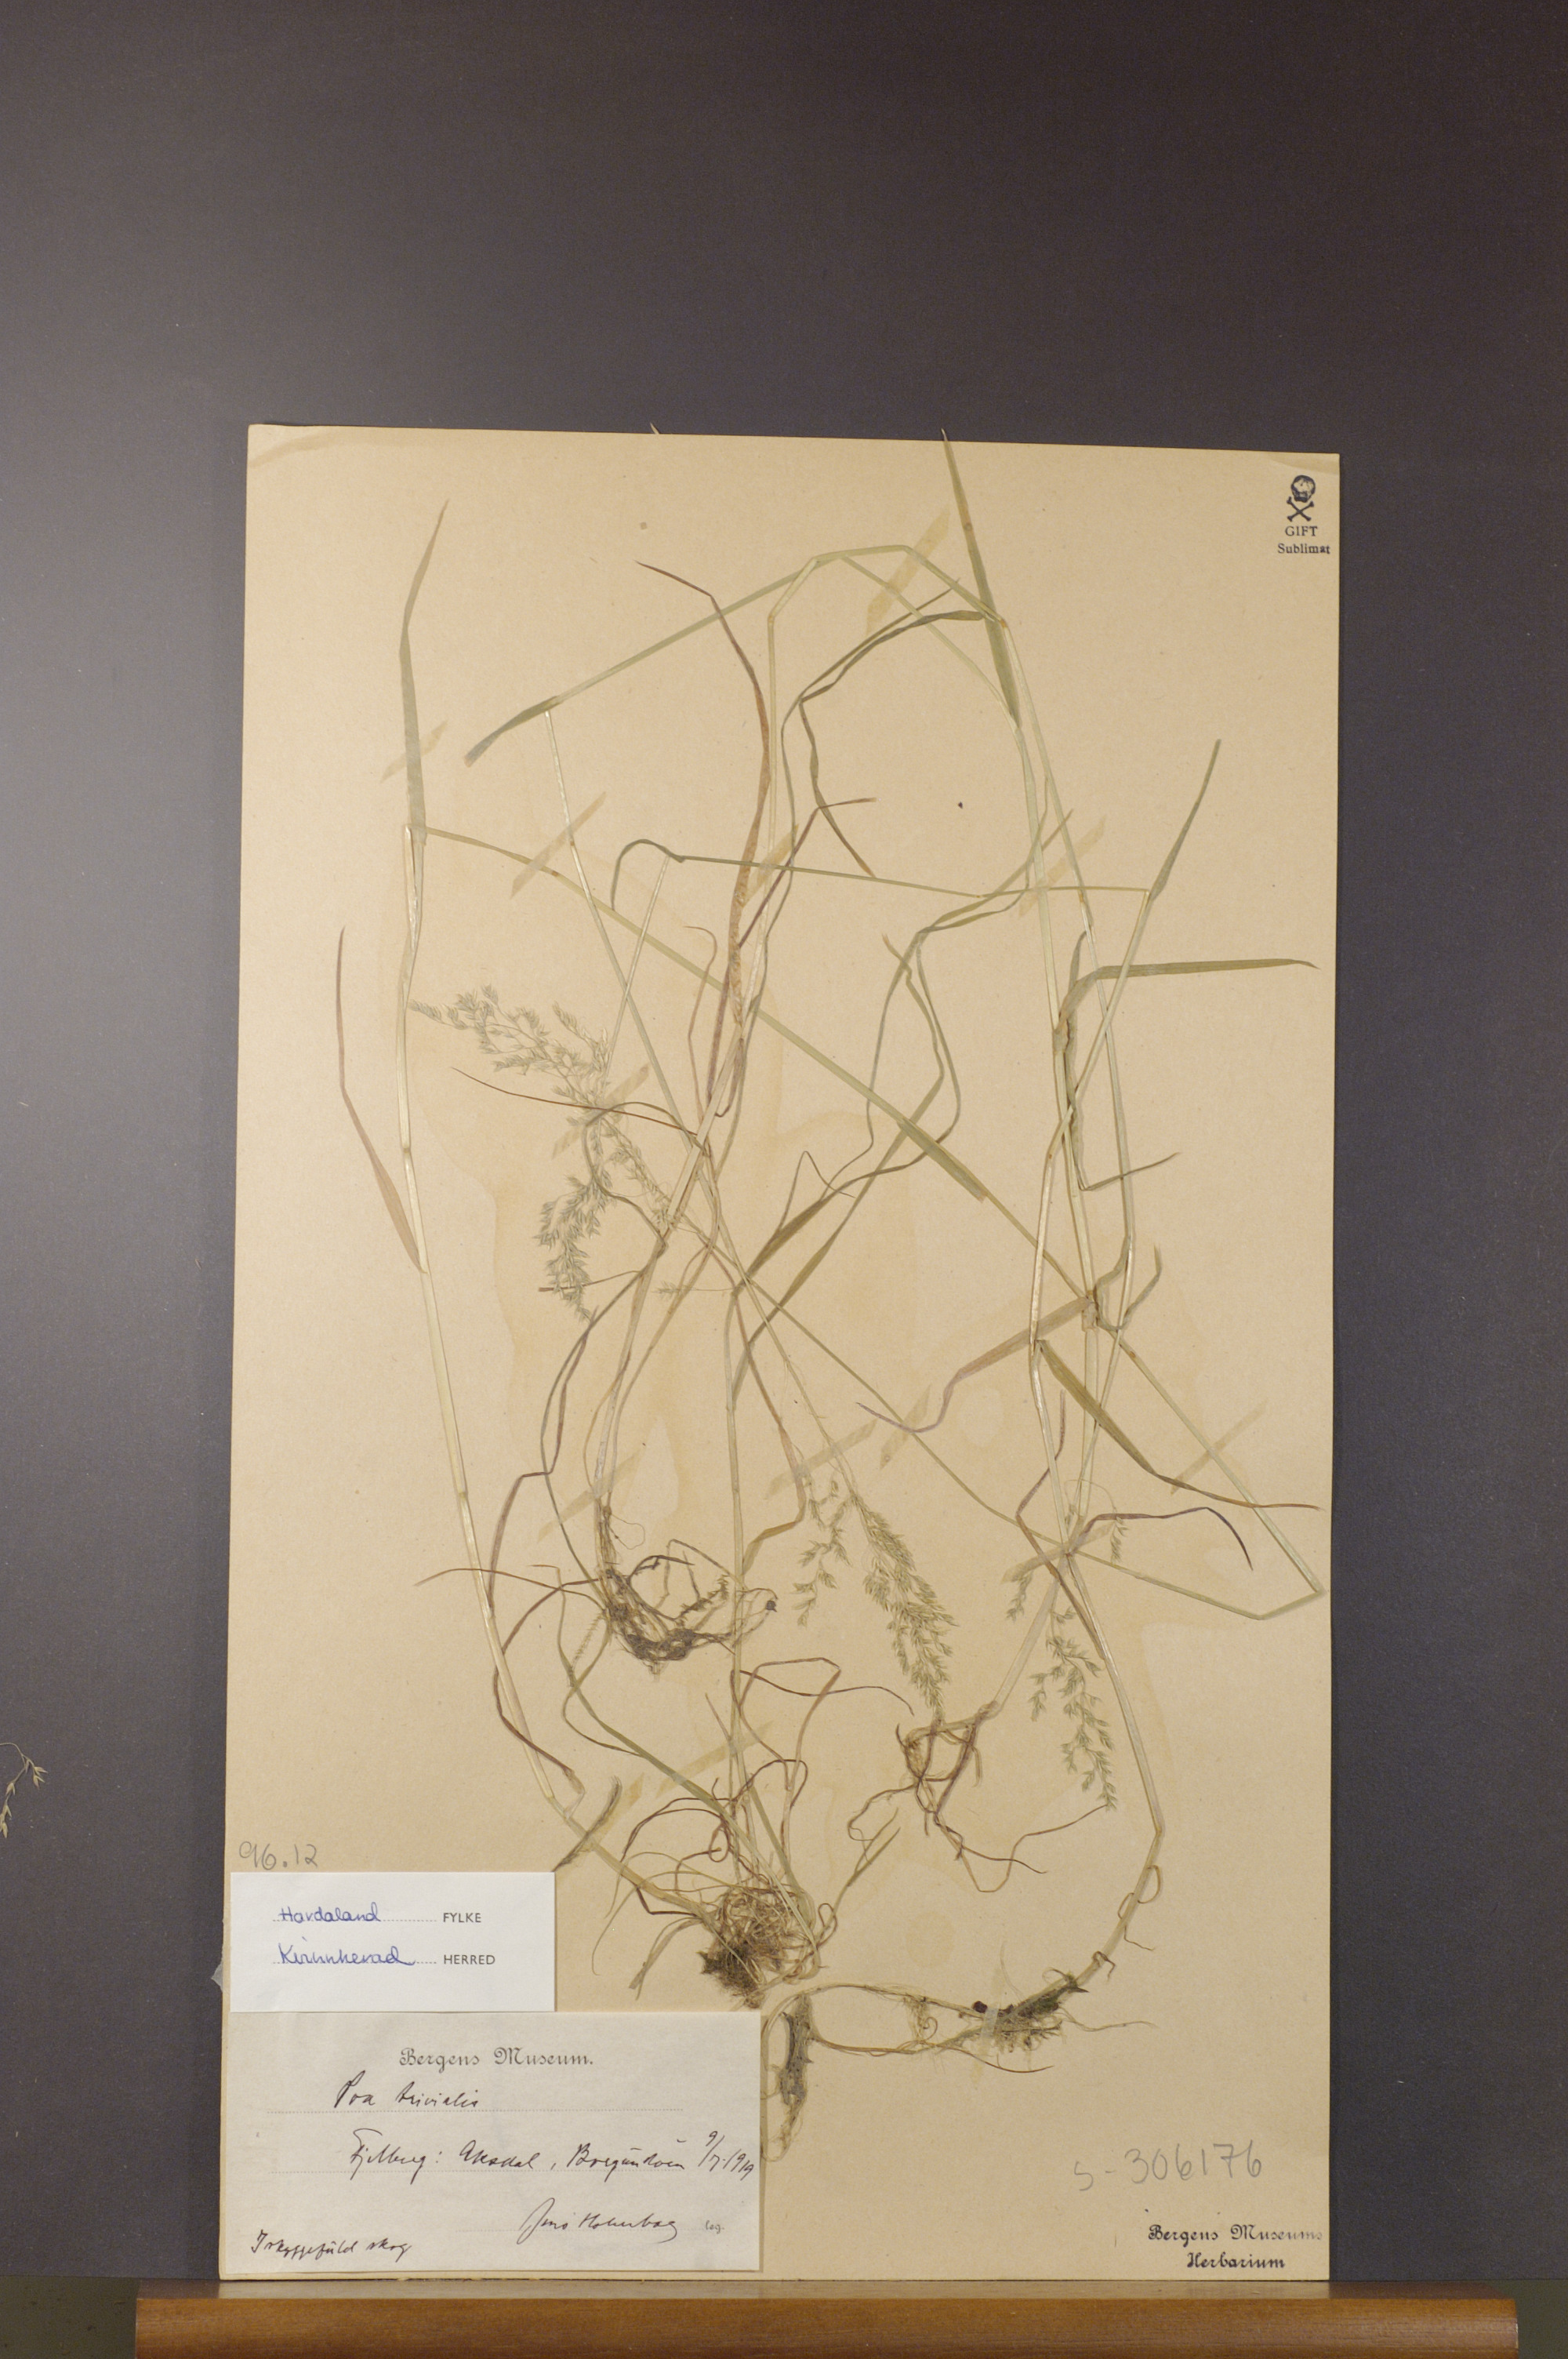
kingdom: Plantae
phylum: Tracheophyta
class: Liliopsida
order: Poales
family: Poaceae
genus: Poa
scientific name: Poa trivialis
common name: Rough bluegrass
